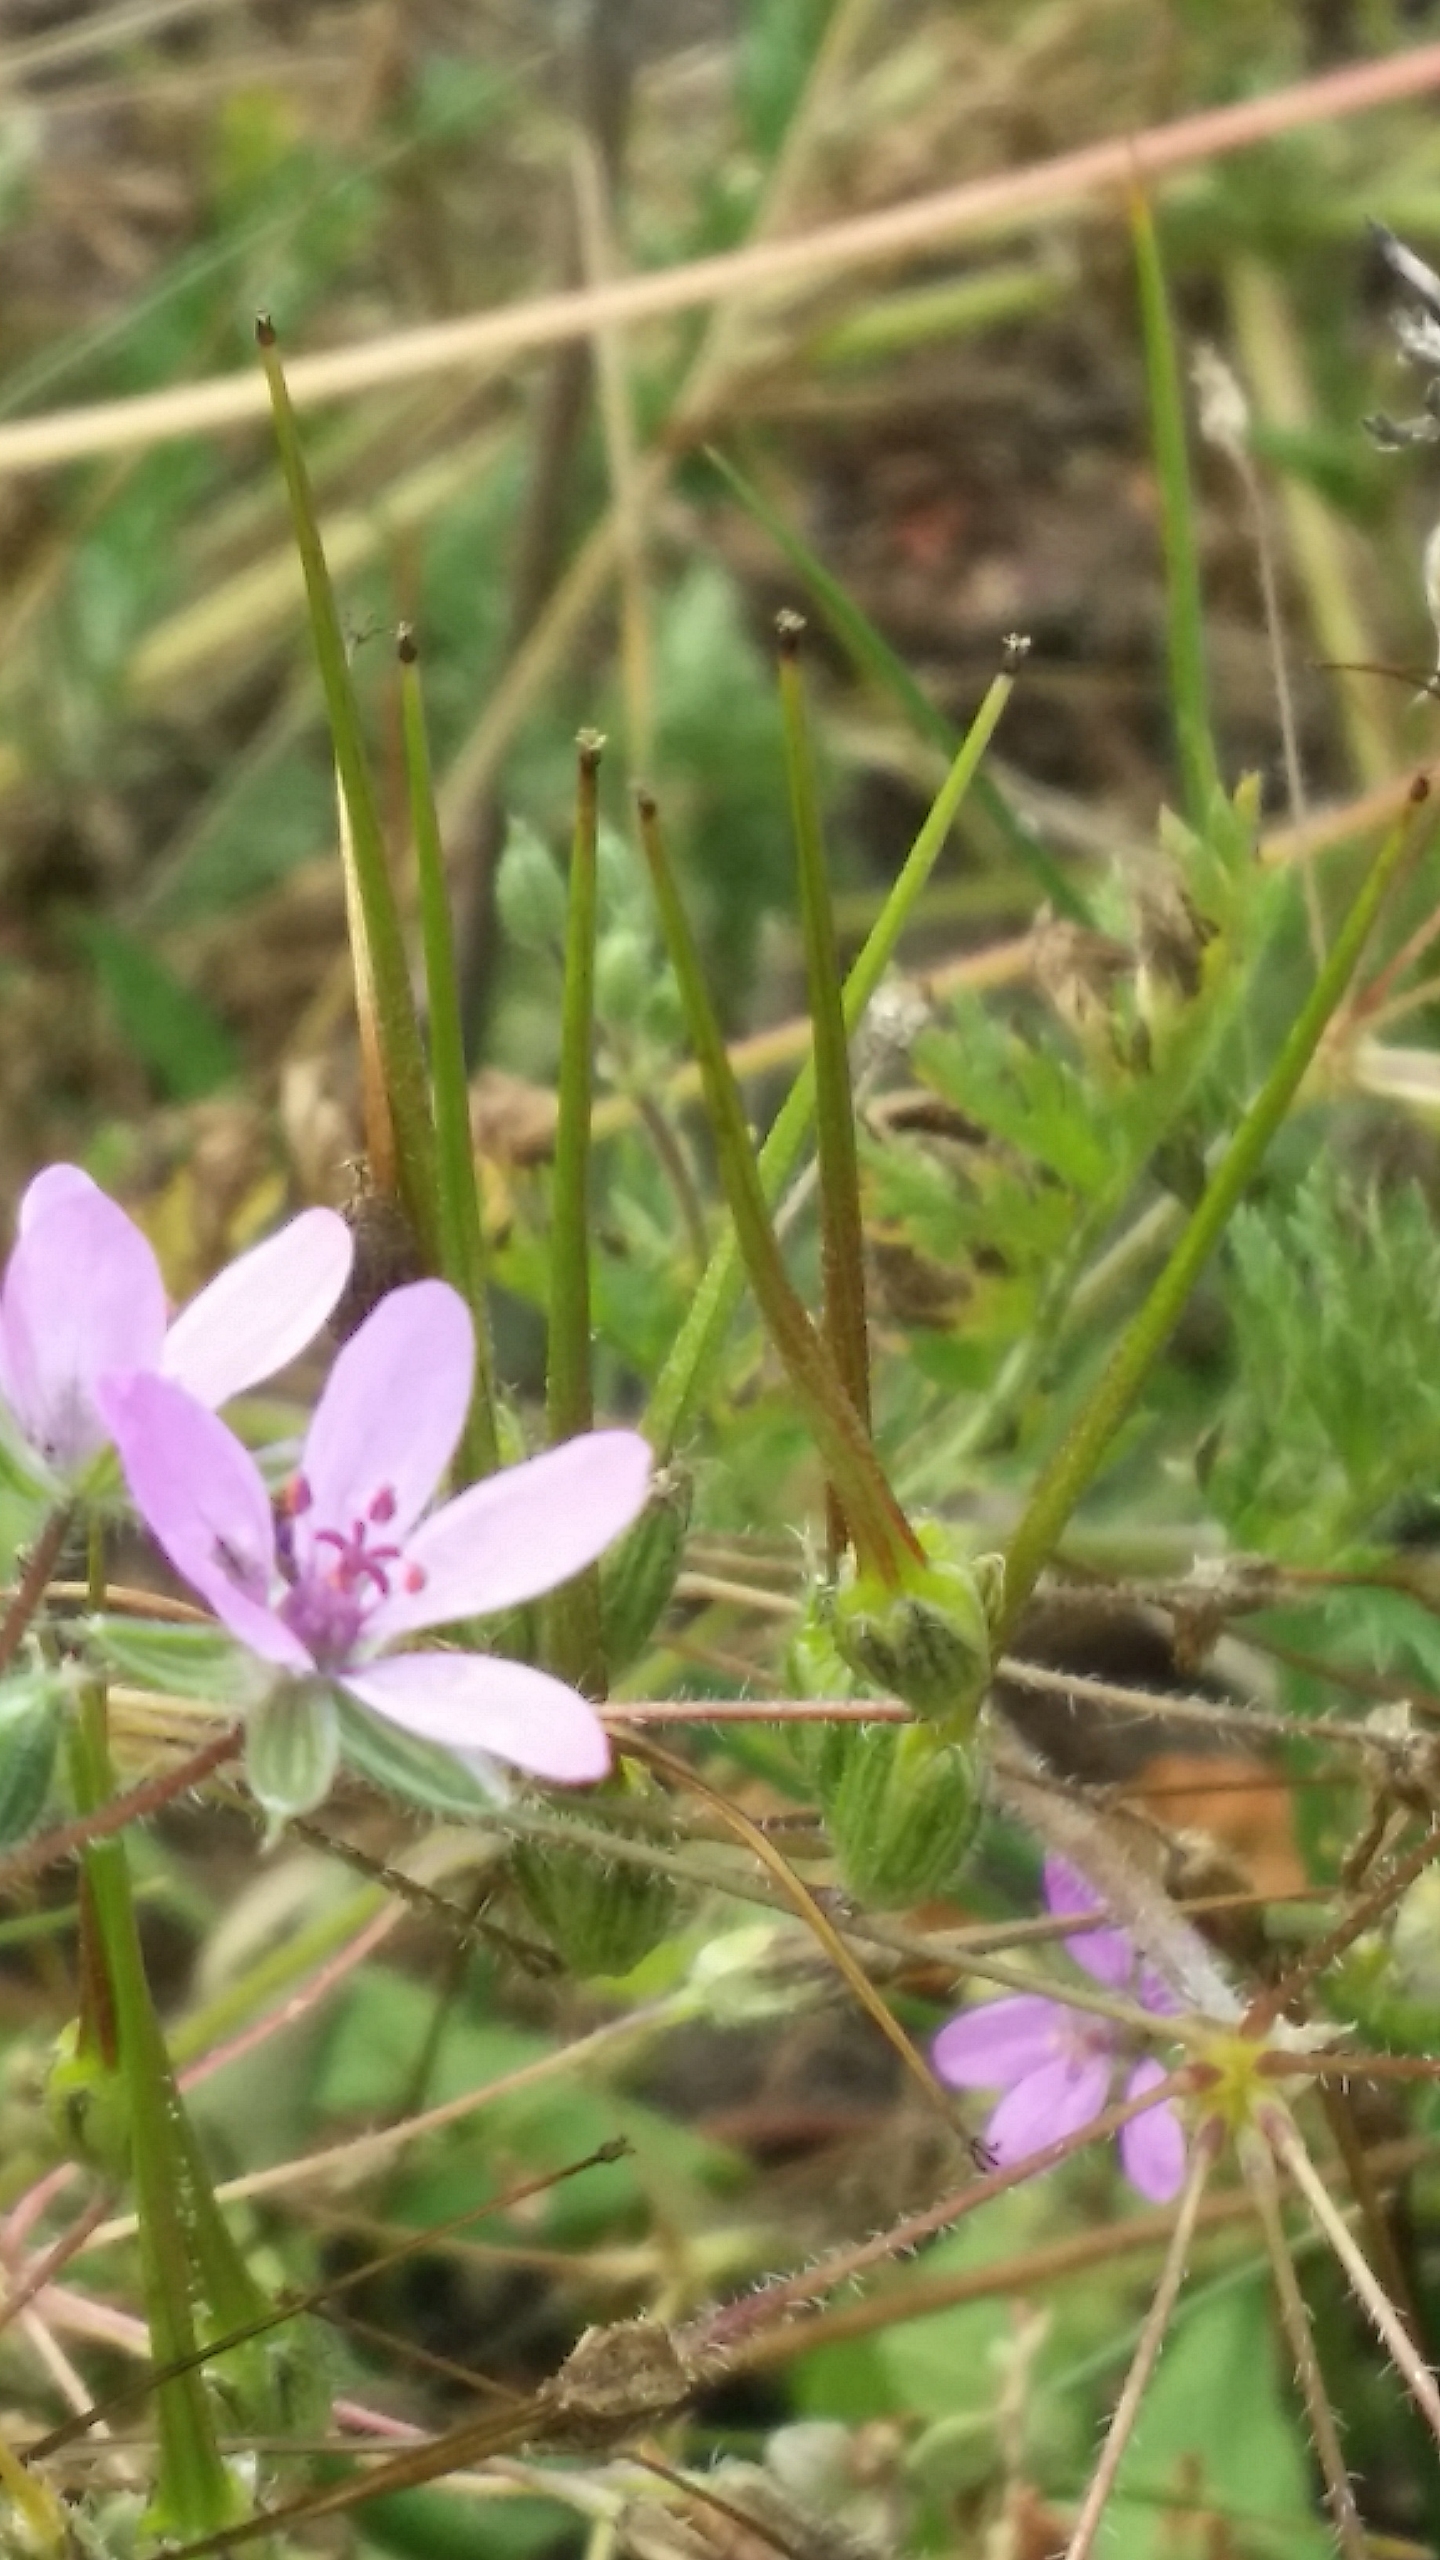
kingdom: Plantae
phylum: Tracheophyta
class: Magnoliopsida
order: Geraniales
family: Geraniaceae
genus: Erodium
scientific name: Erodium cicutarium
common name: Hejrenæb
